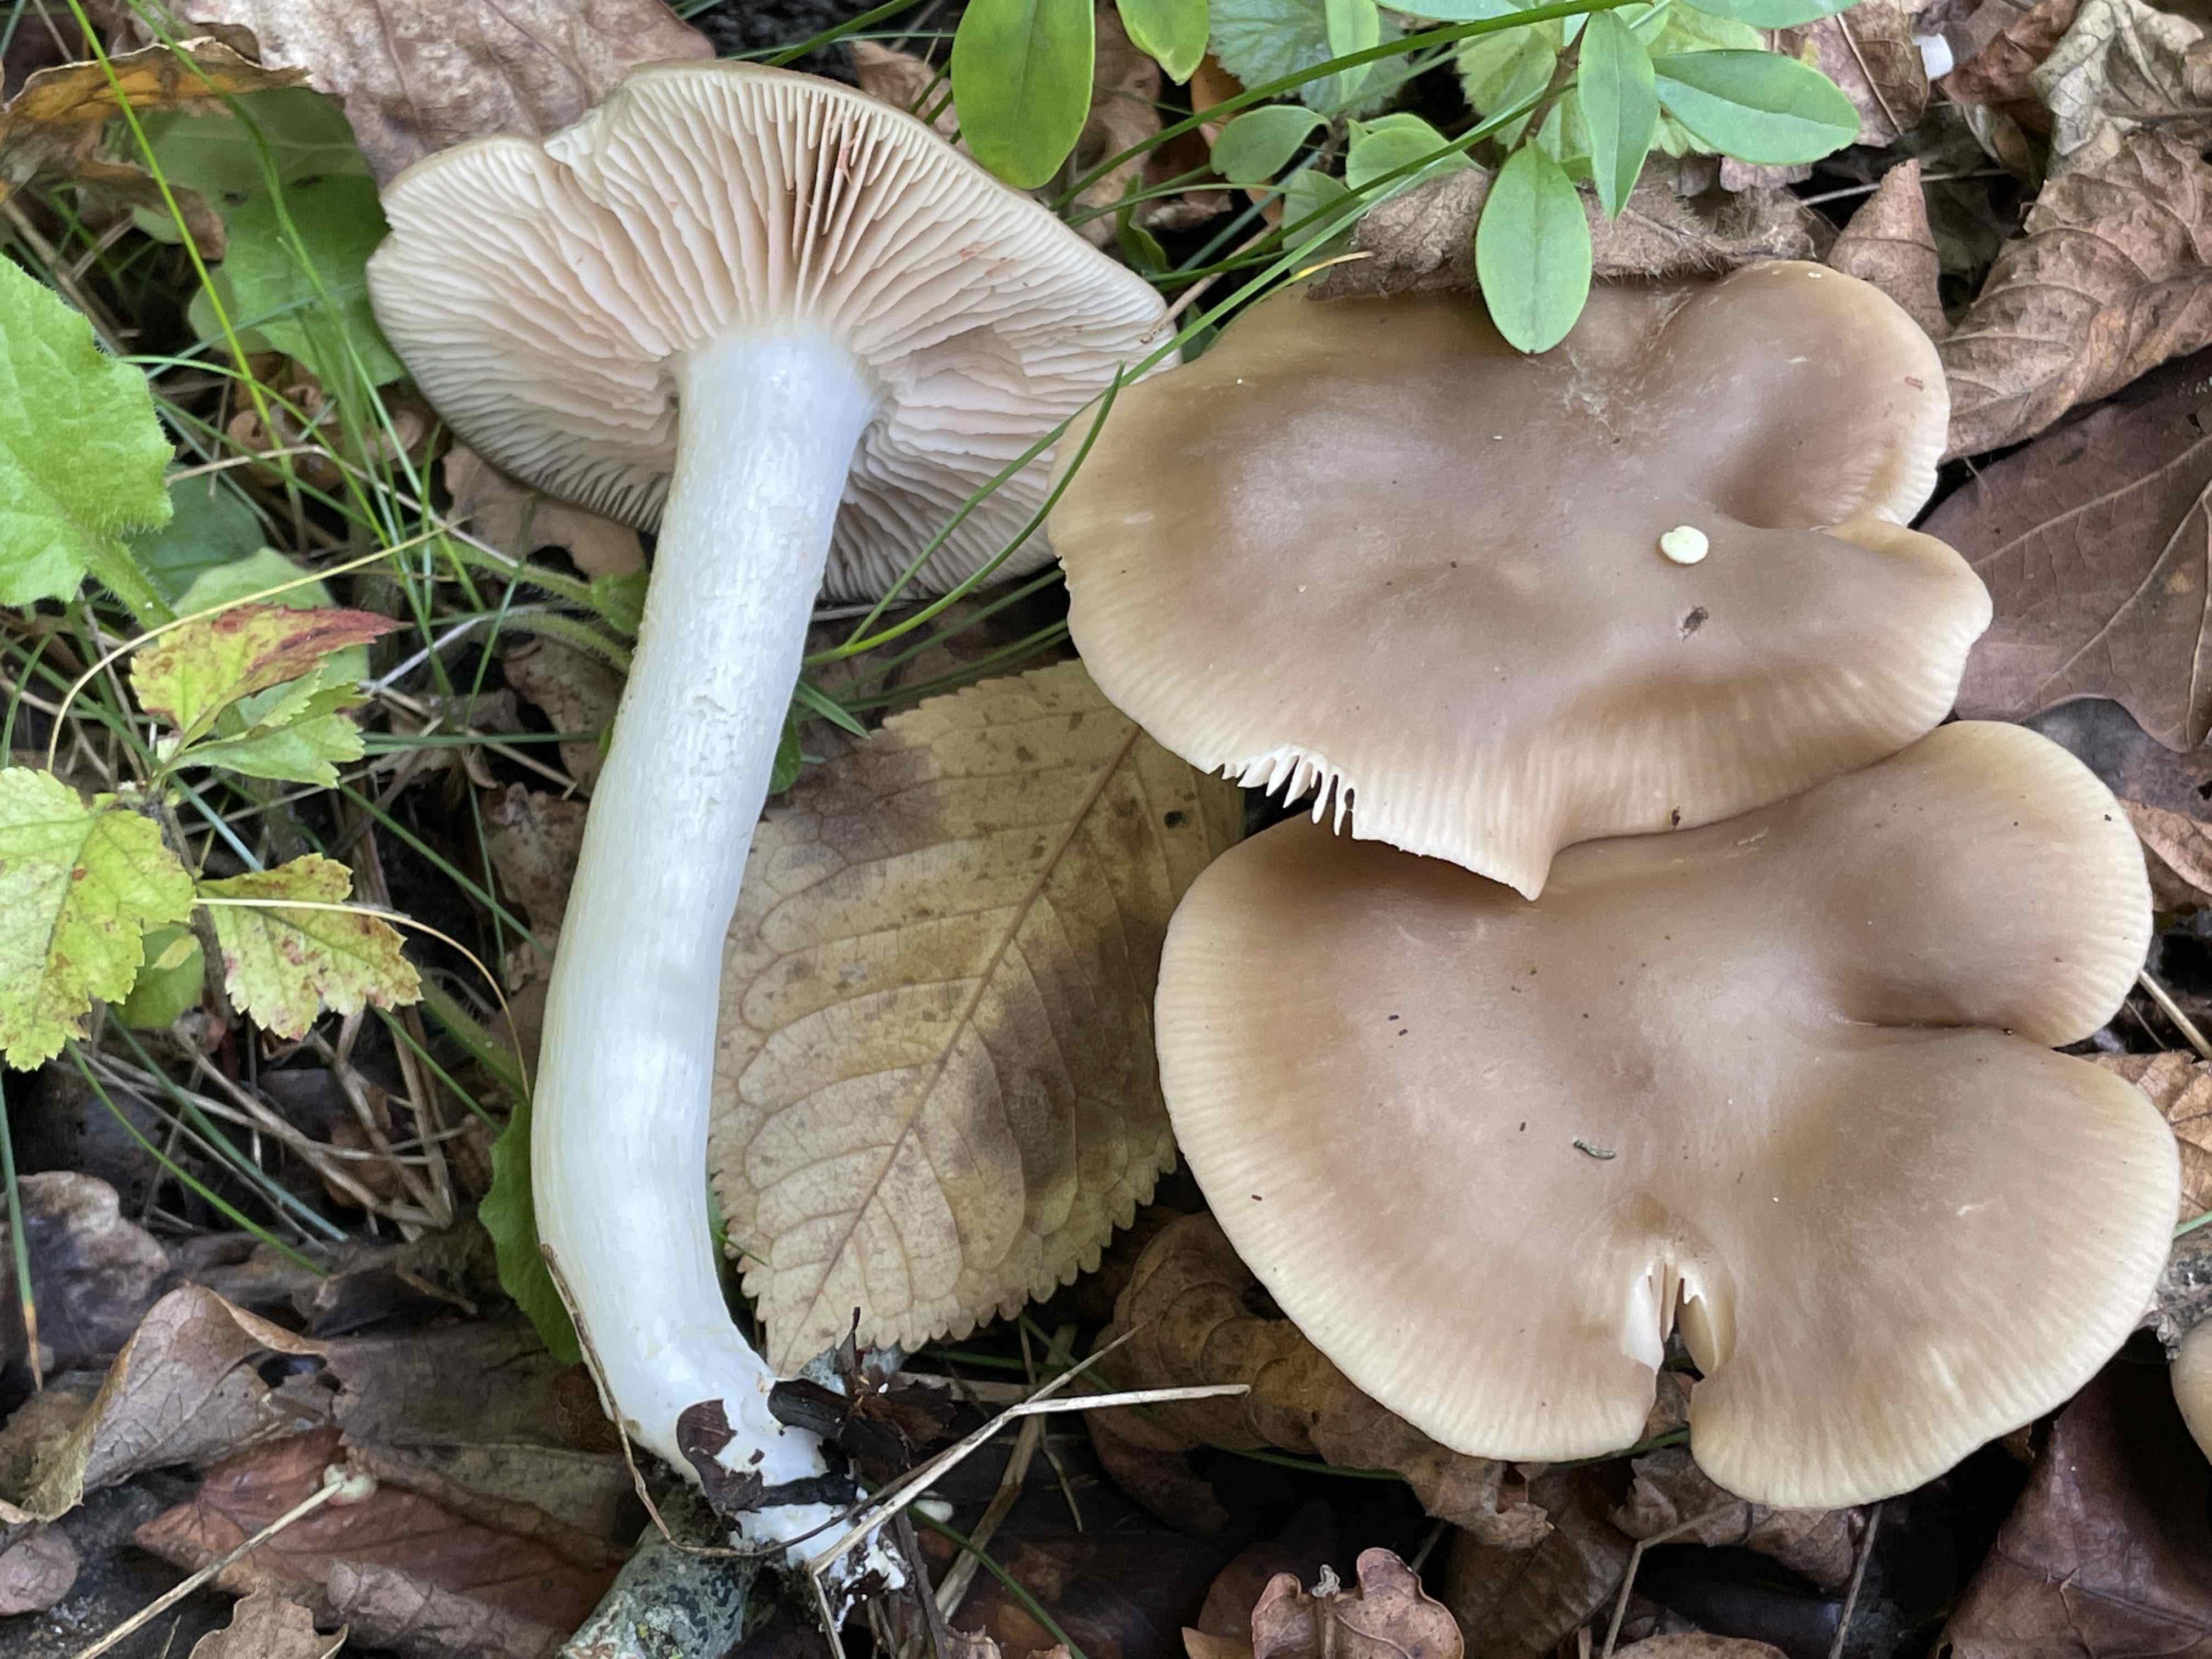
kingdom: Fungi
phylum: Basidiomycota
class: Agaricomycetes
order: Agaricales
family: Entolomataceae
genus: Entoloma
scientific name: Entoloma rhodopolium
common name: skov-rødblad
